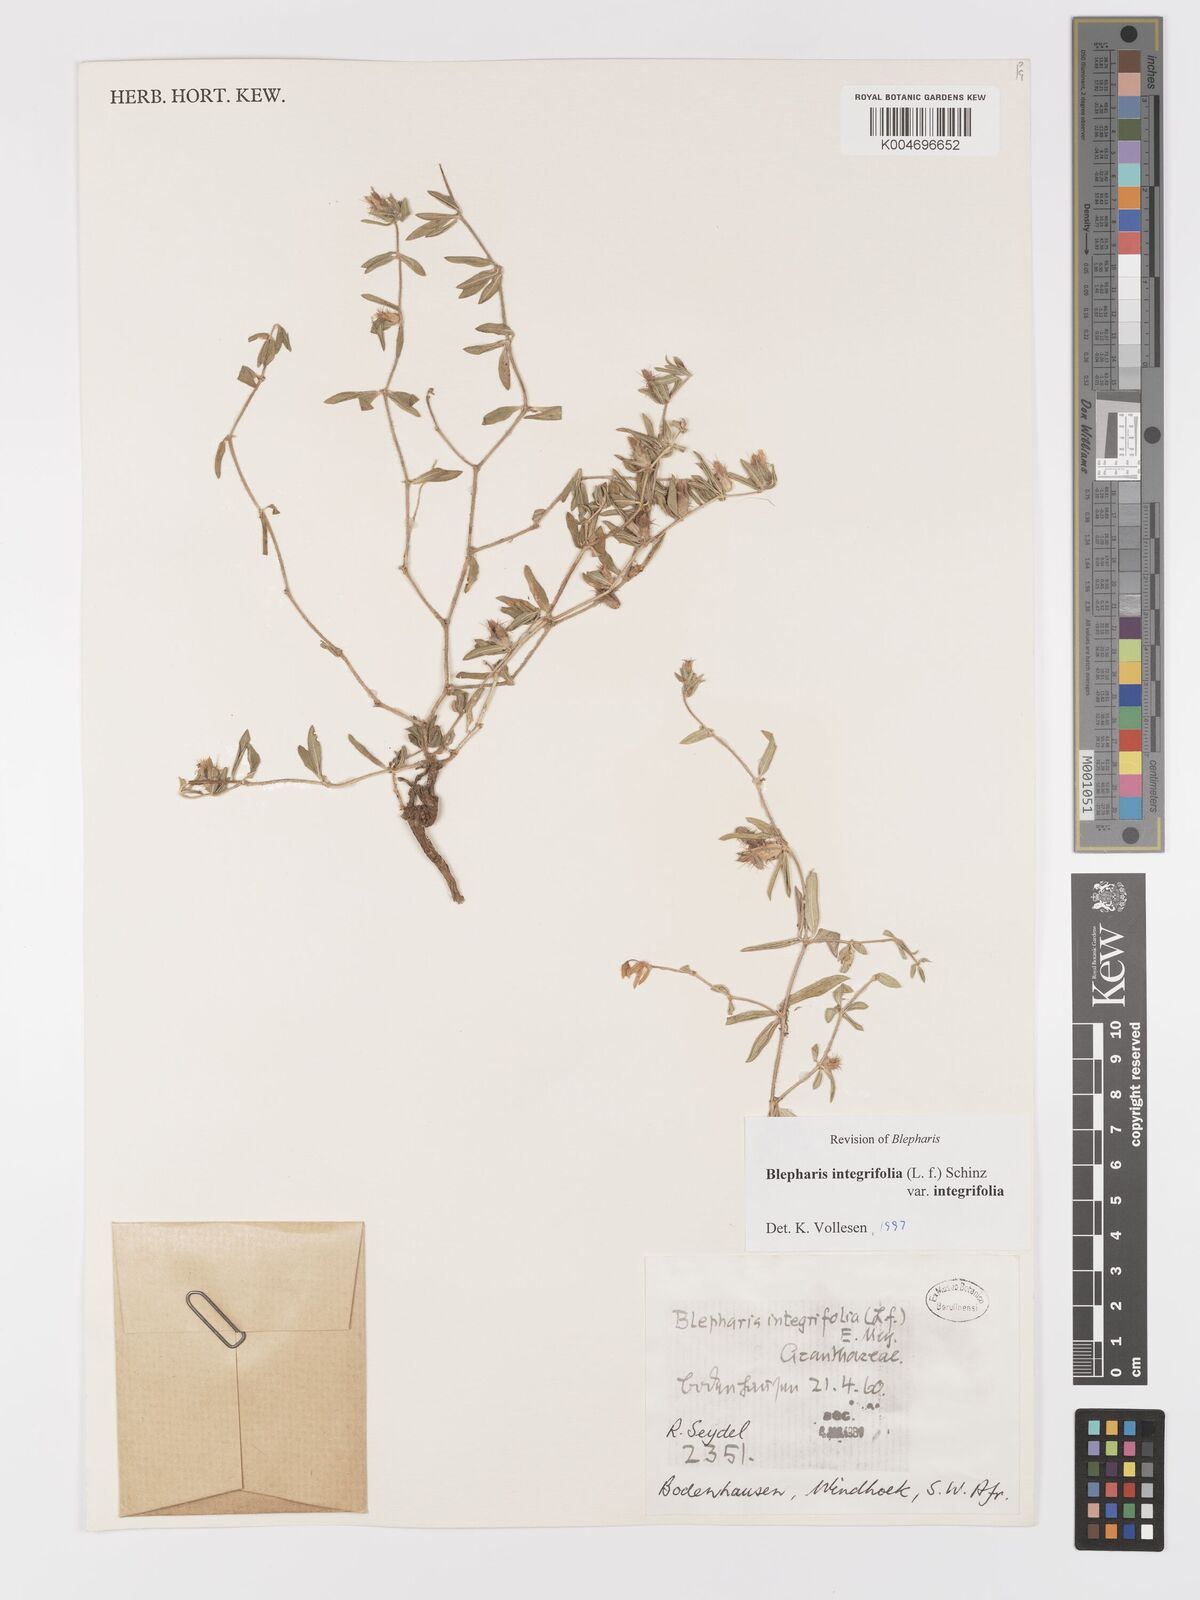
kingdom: Plantae
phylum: Tracheophyta
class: Magnoliopsida
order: Lamiales
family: Acanthaceae
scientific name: Acanthaceae
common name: Acanthaceae
